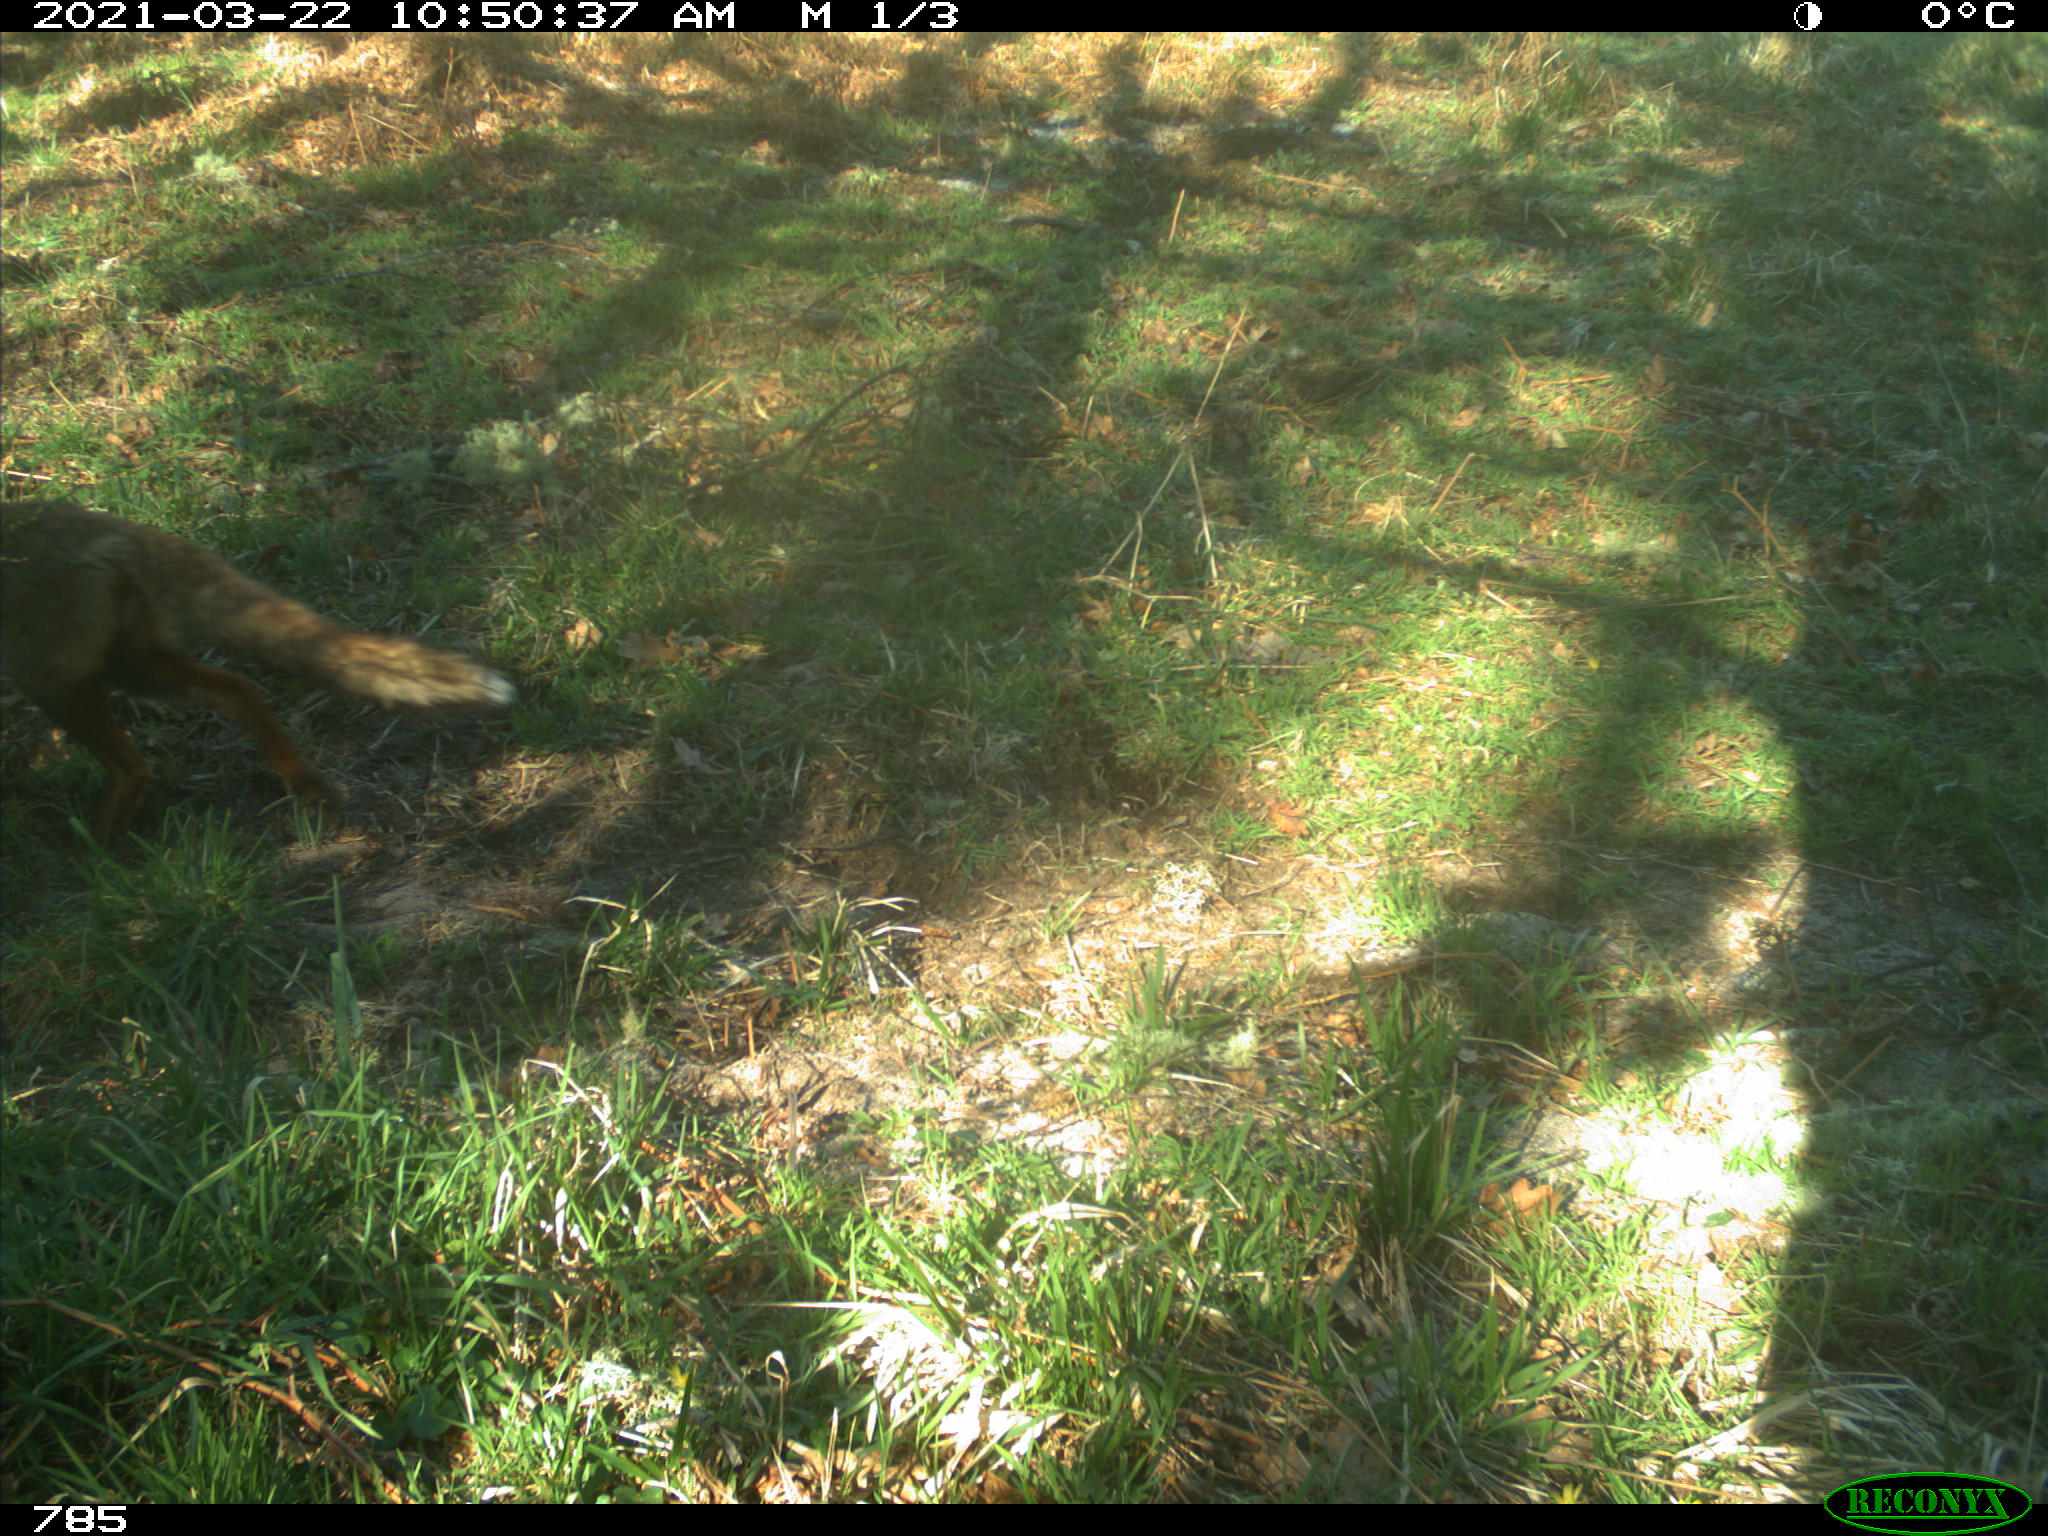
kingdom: Animalia
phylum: Chordata
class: Mammalia
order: Carnivora
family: Canidae
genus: Vulpes
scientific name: Vulpes vulpes
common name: Red fox
